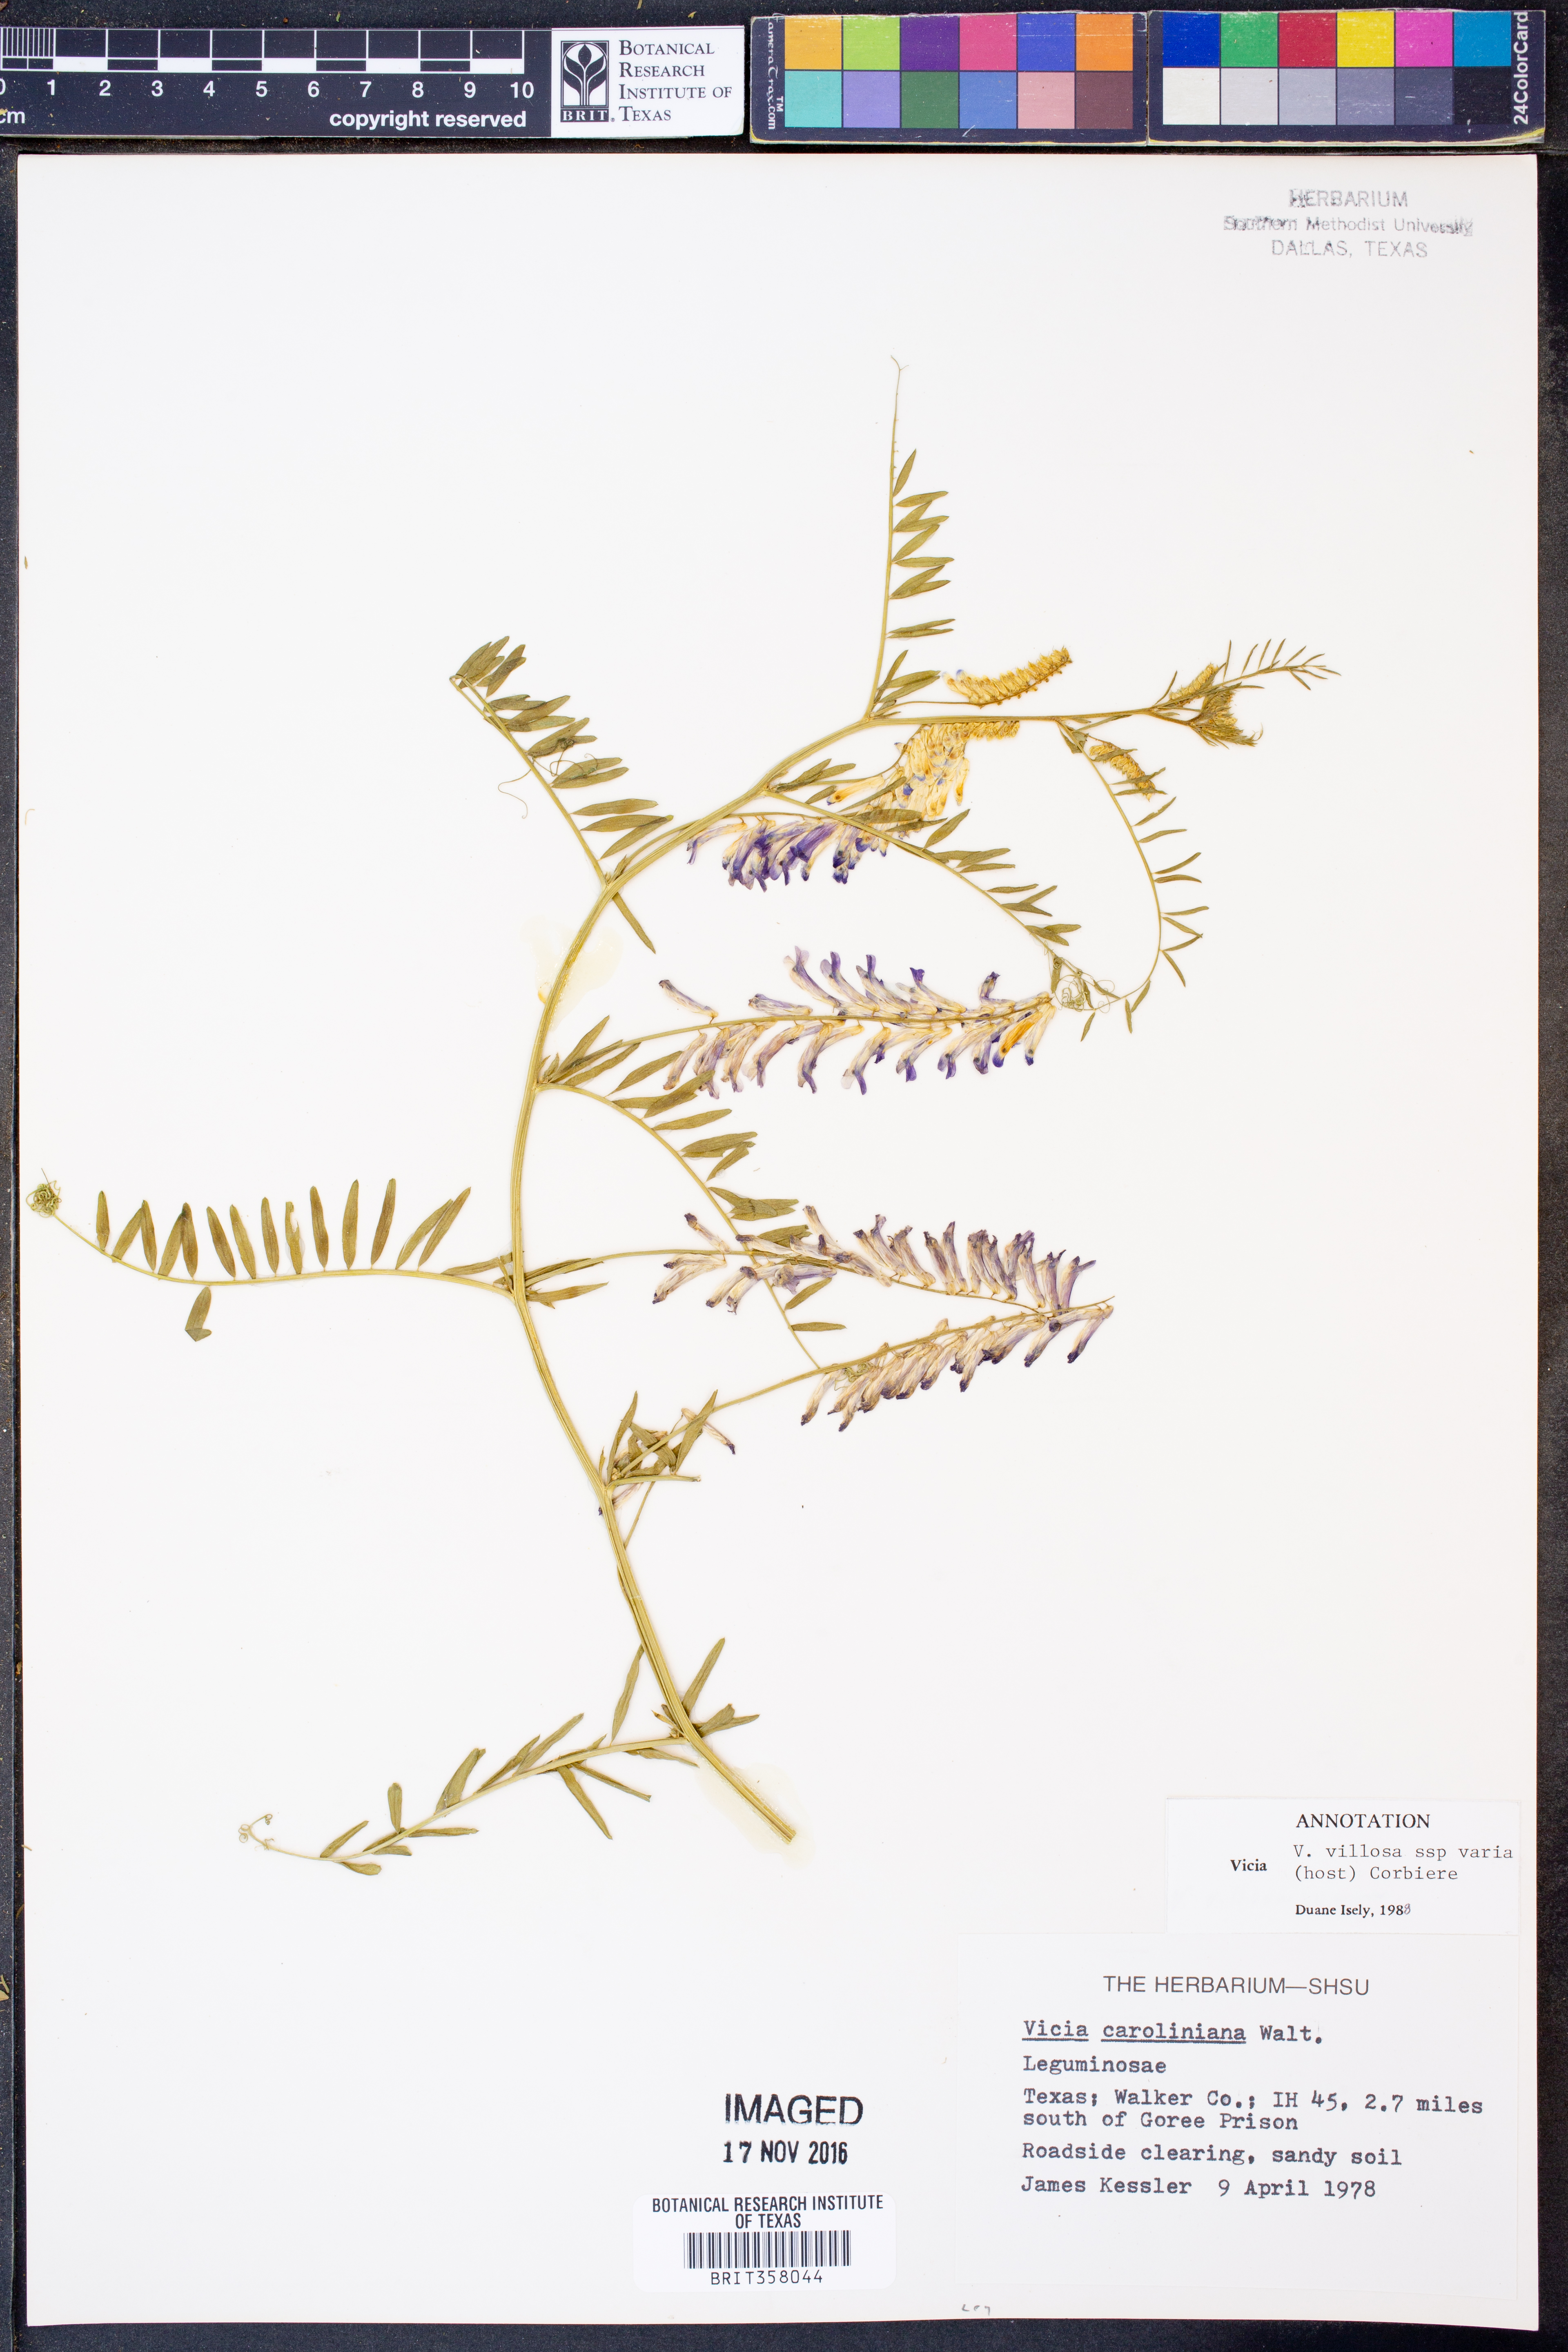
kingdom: Plantae
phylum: Tracheophyta
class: Magnoliopsida
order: Fabales
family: Fabaceae
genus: Vicia
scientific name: Vicia villosa
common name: Fodder vetch
